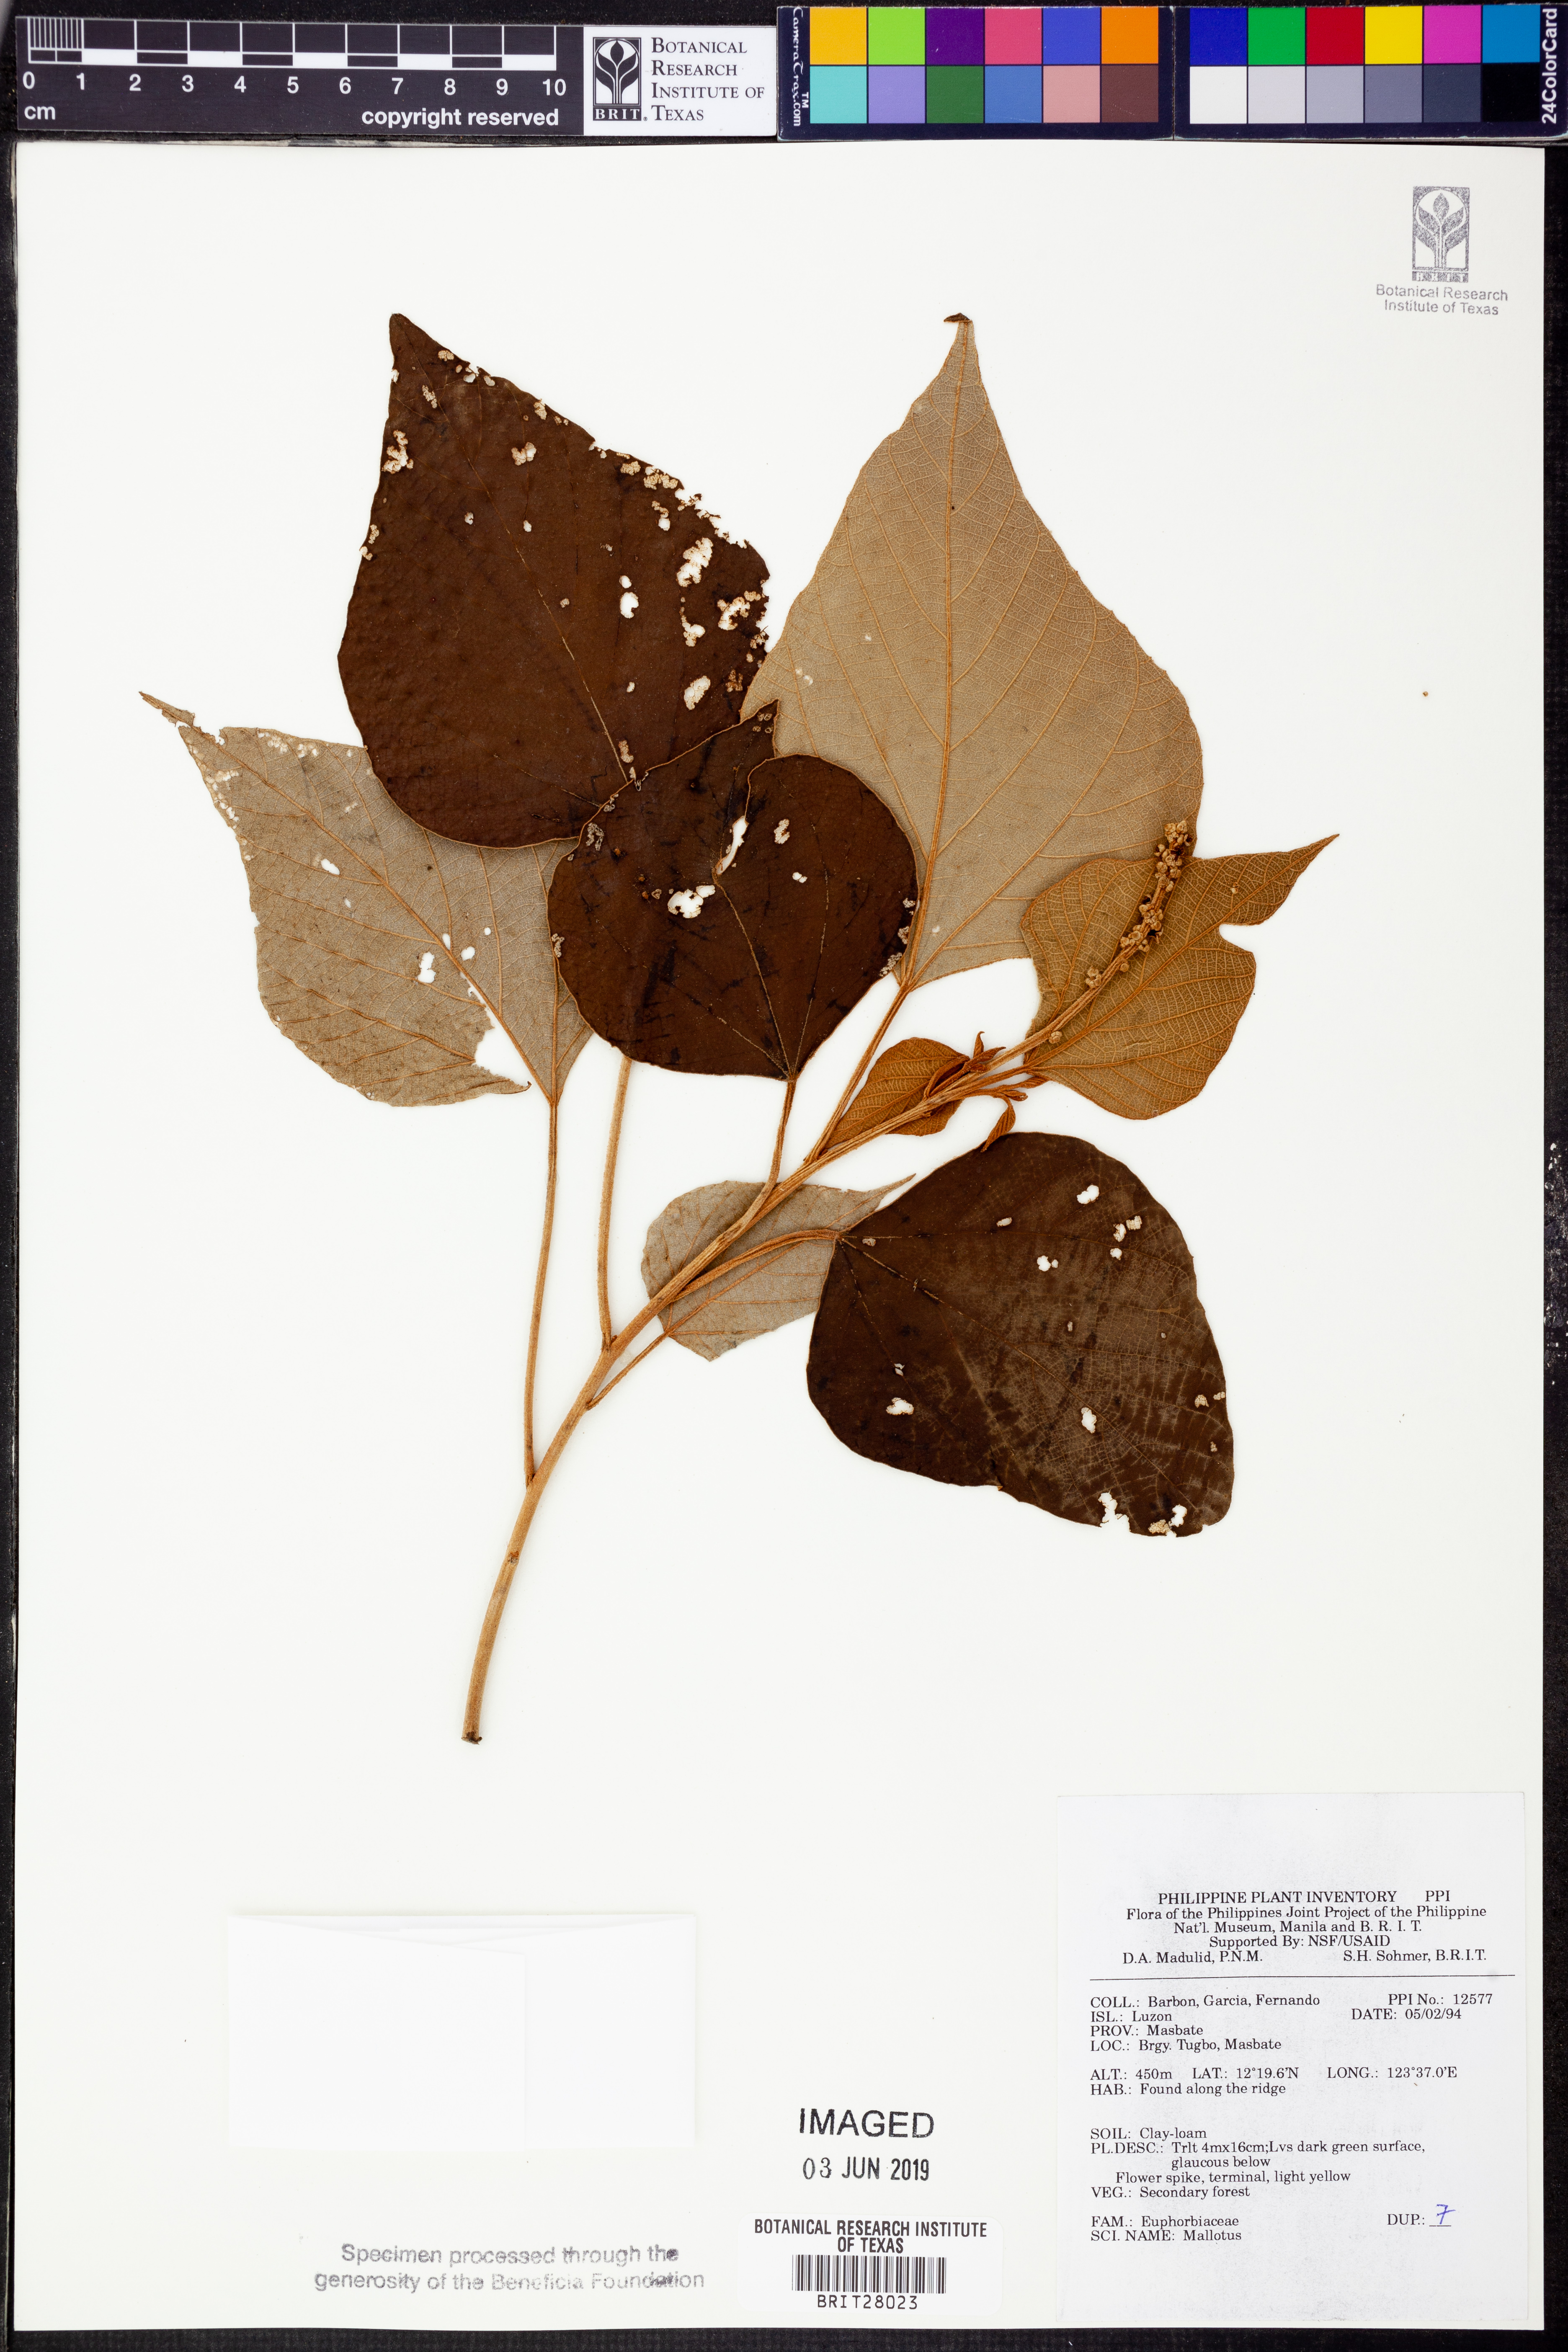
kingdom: Plantae
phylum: Tracheophyta
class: Magnoliopsida
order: Malpighiales
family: Euphorbiaceae
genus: Mallotus
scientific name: Mallotus
